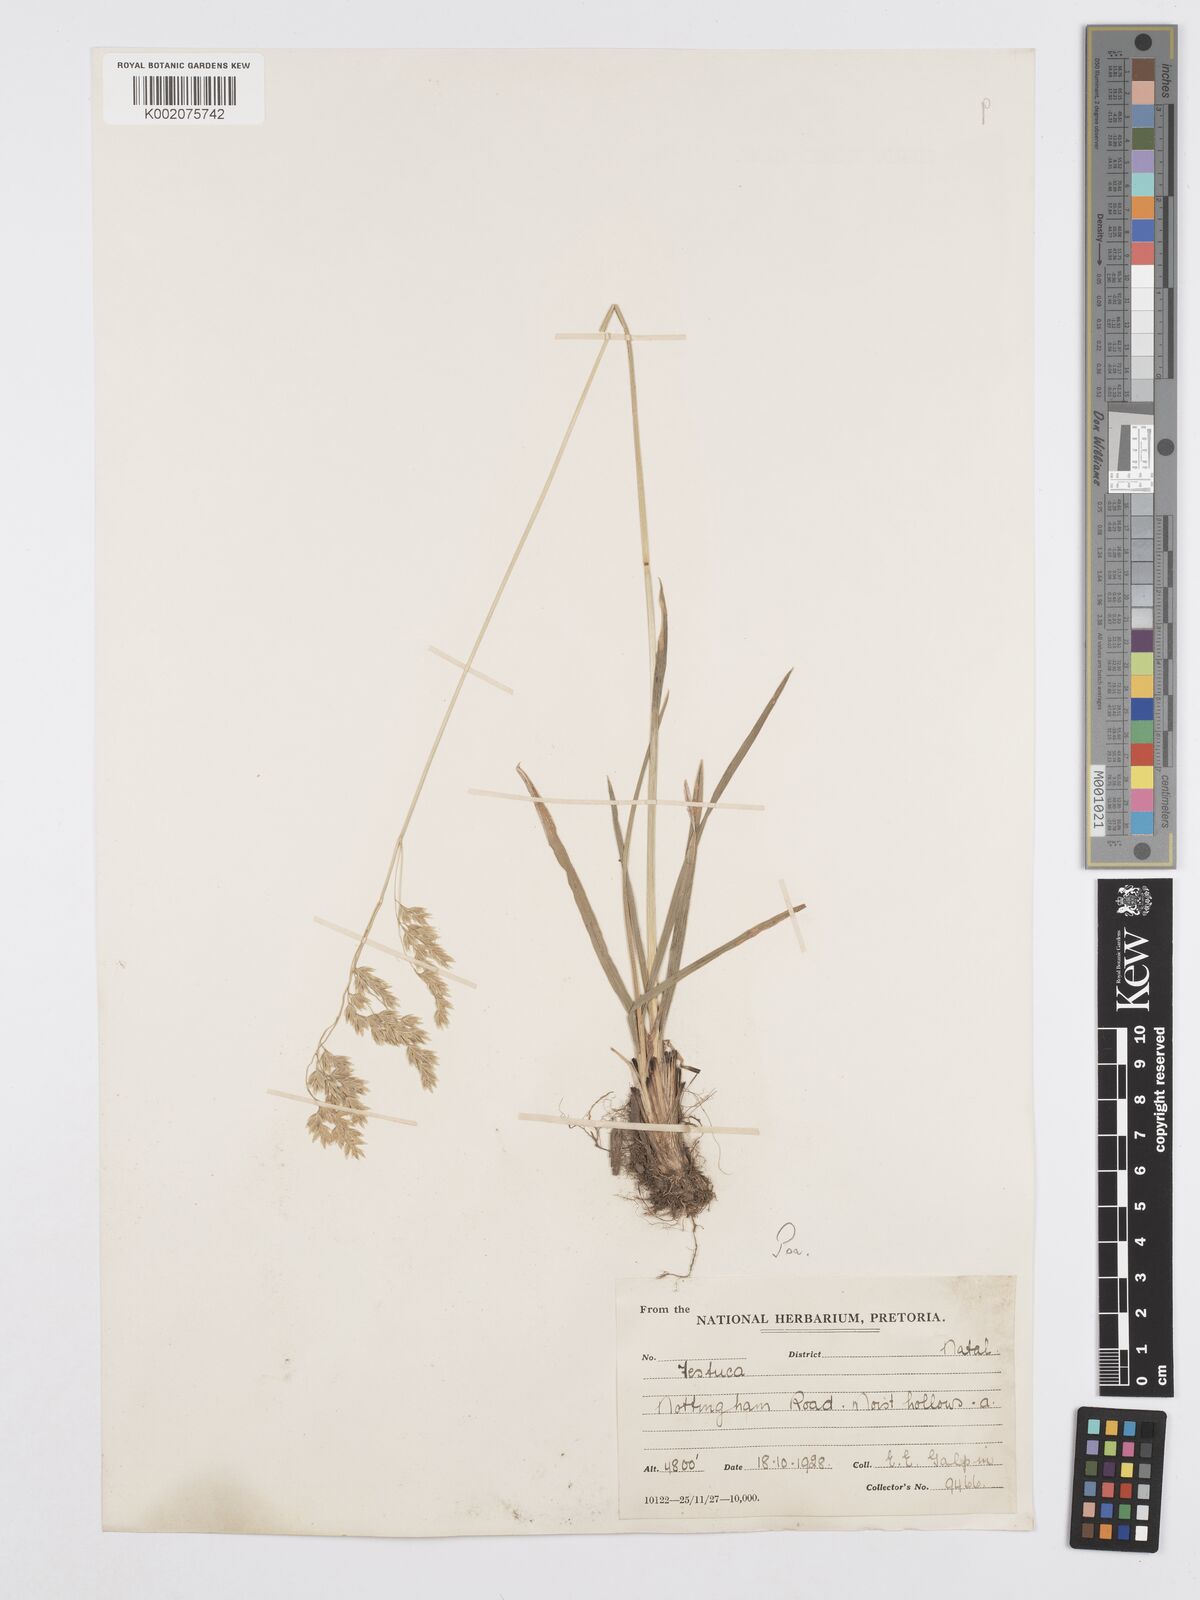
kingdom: Plantae
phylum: Tracheophyta
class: Liliopsida
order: Poales
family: Poaceae
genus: Poa
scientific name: Poa binata
